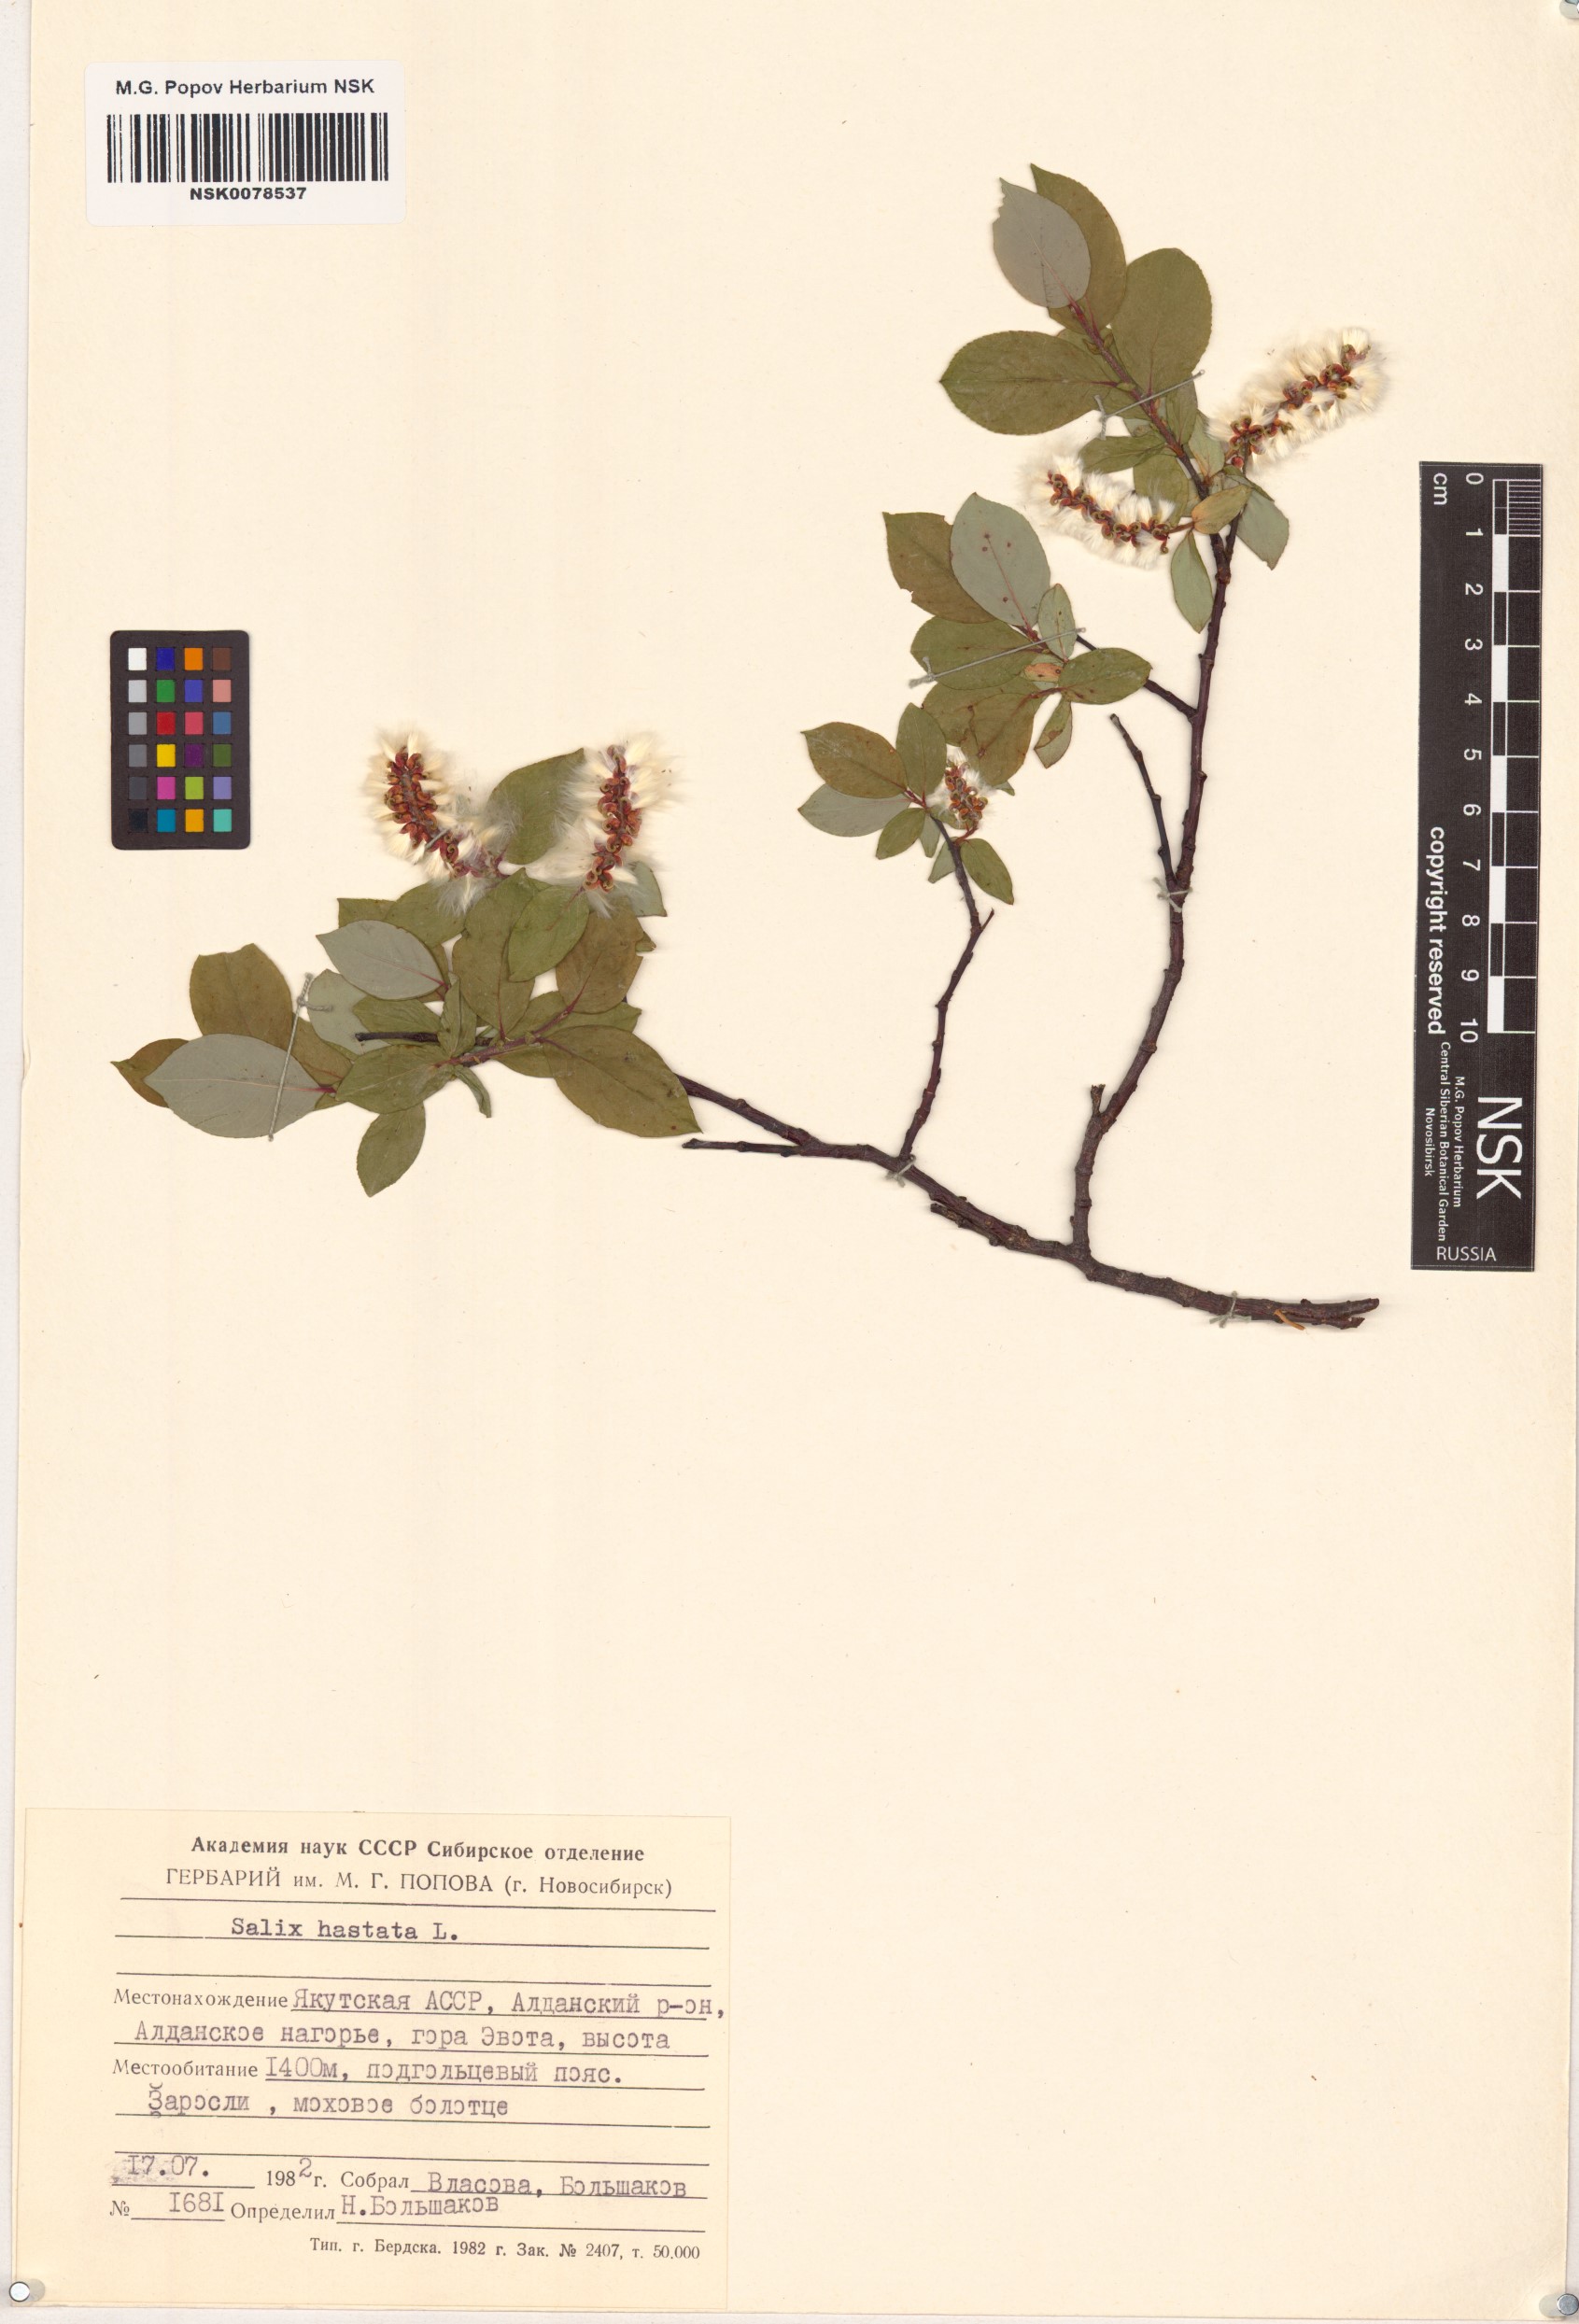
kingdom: Plantae
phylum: Tracheophyta
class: Magnoliopsida
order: Malpighiales
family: Salicaceae
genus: Salix
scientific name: Salix hastata
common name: Halberd willow
